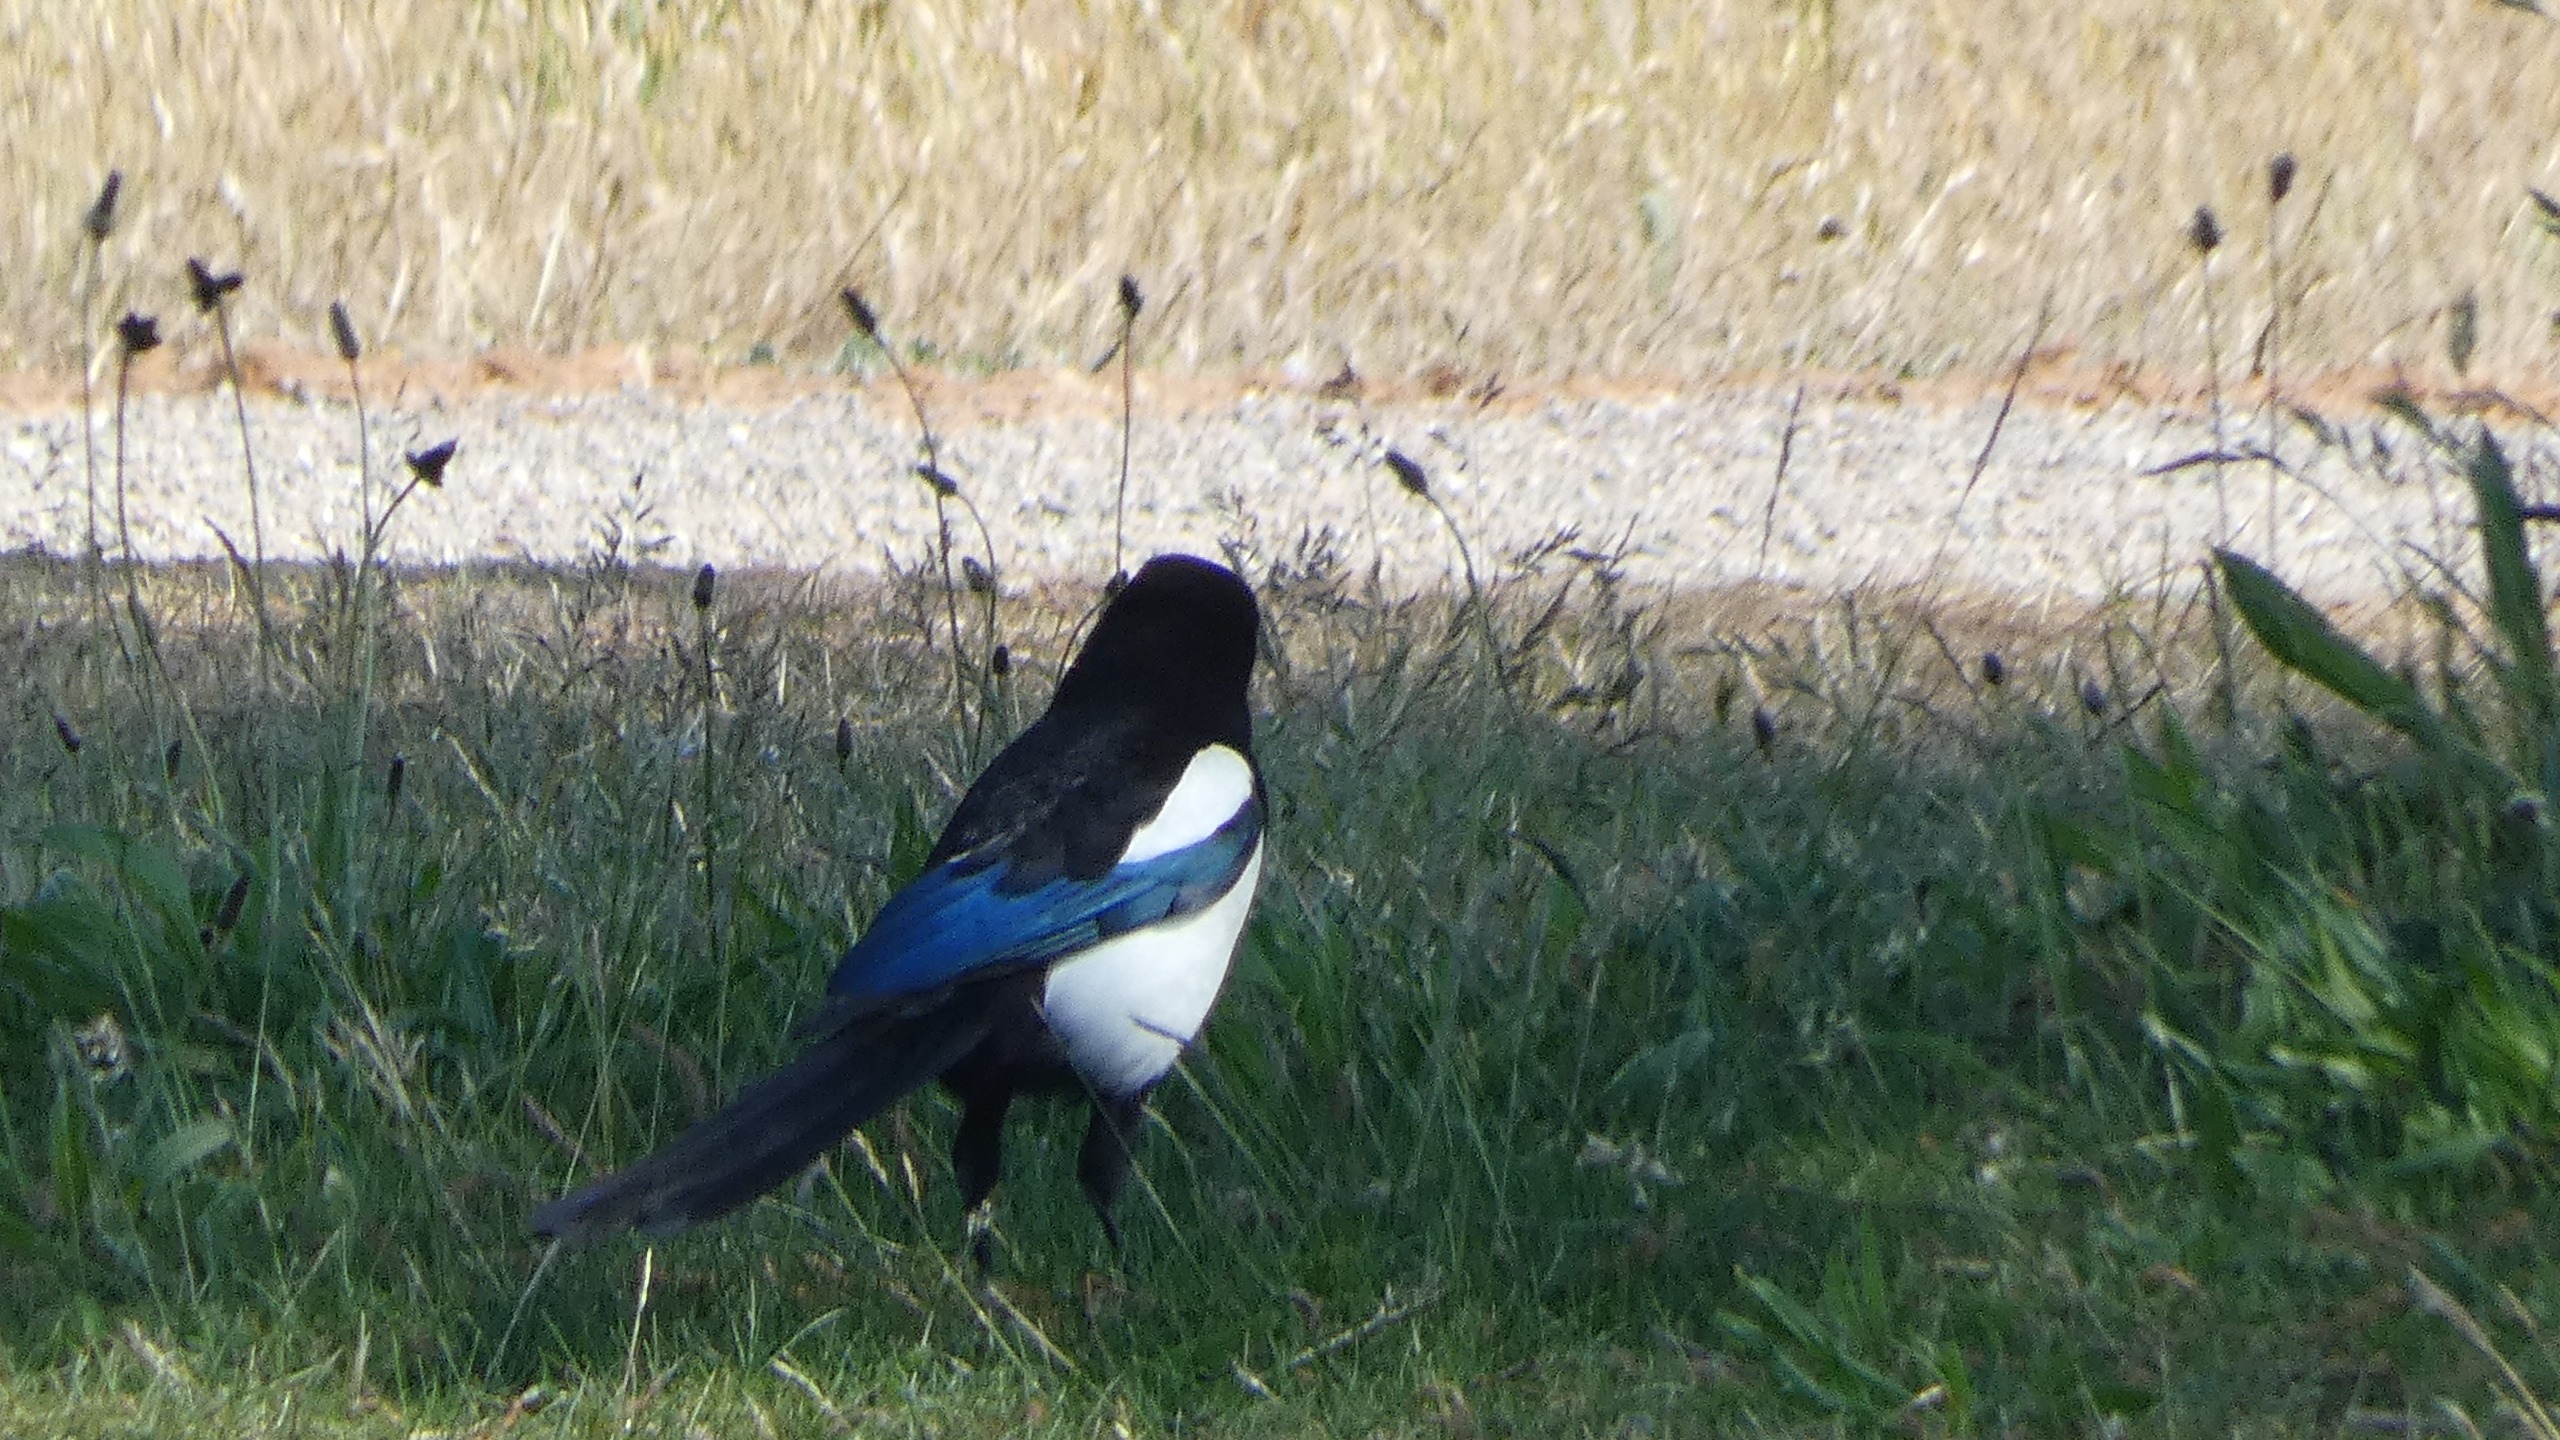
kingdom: Animalia
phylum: Chordata
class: Aves
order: Passeriformes
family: Corvidae
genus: Pica
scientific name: Pica pica
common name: Husskade
